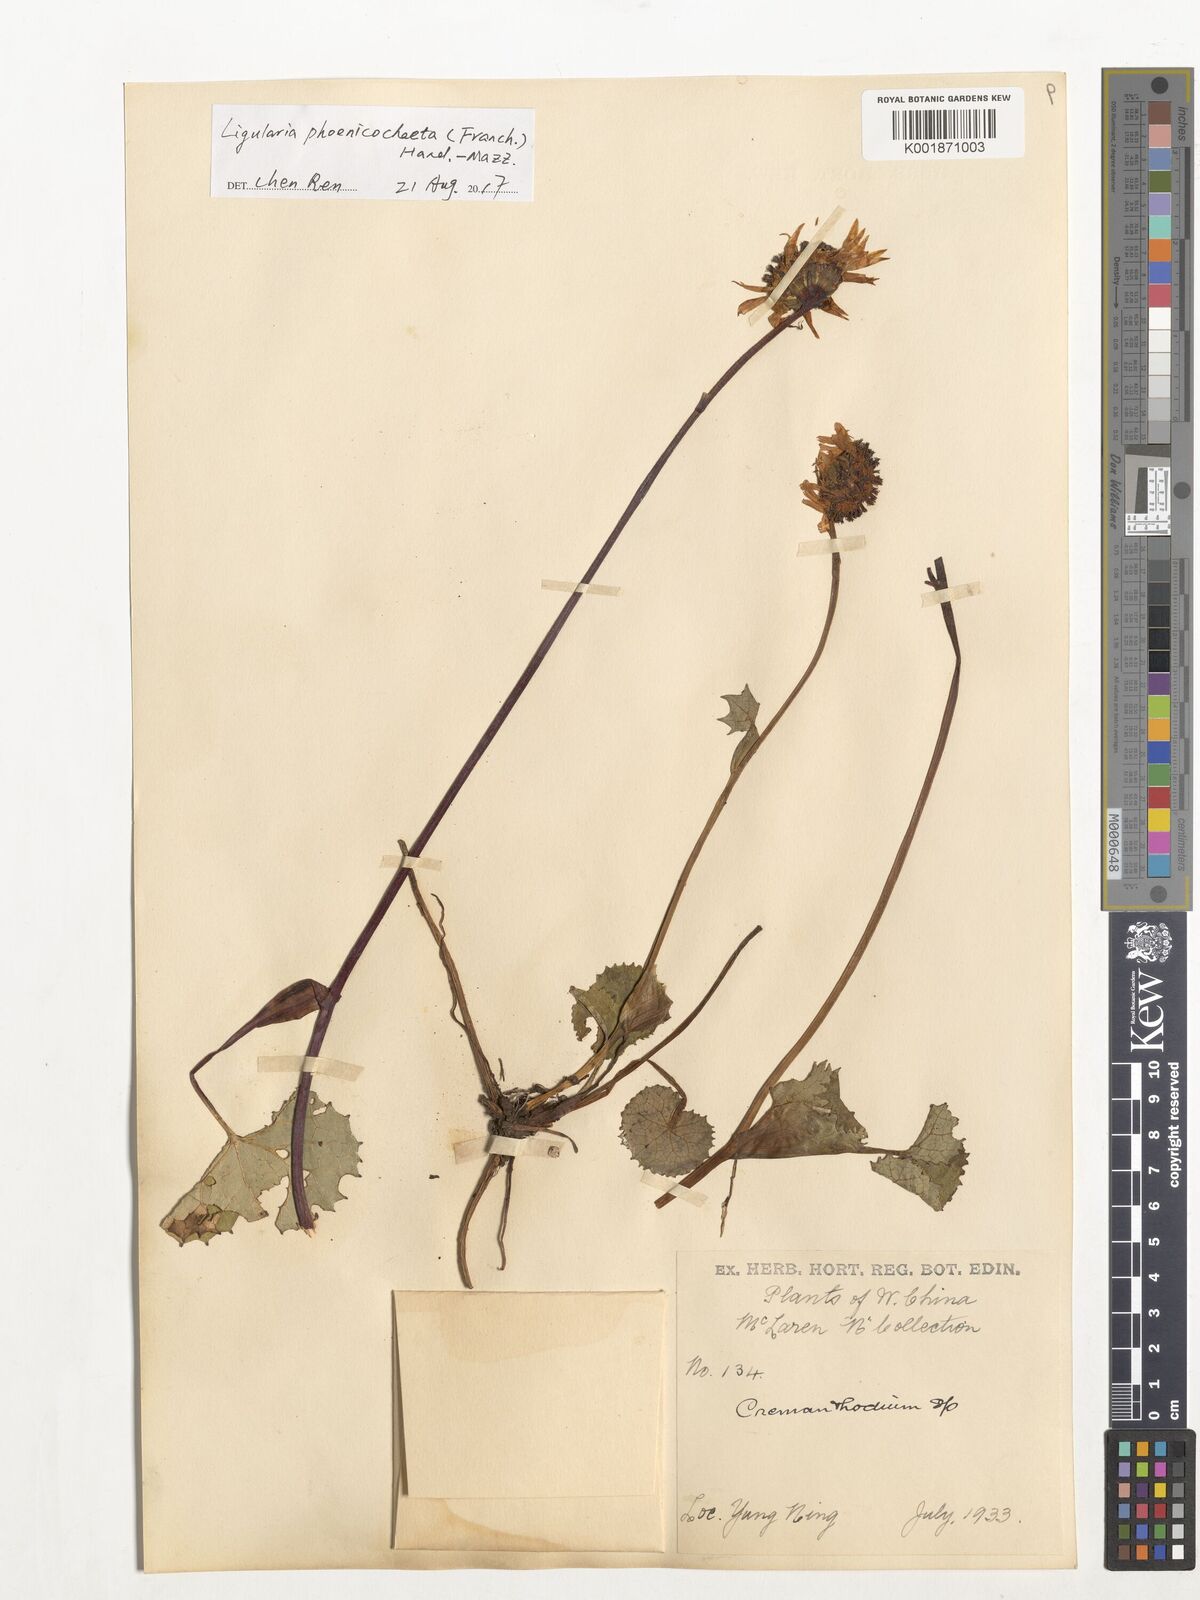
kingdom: Plantae
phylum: Tracheophyta
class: Magnoliopsida
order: Asterales
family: Asteraceae
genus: Ligularia
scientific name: Ligularia phoenicochaeta
